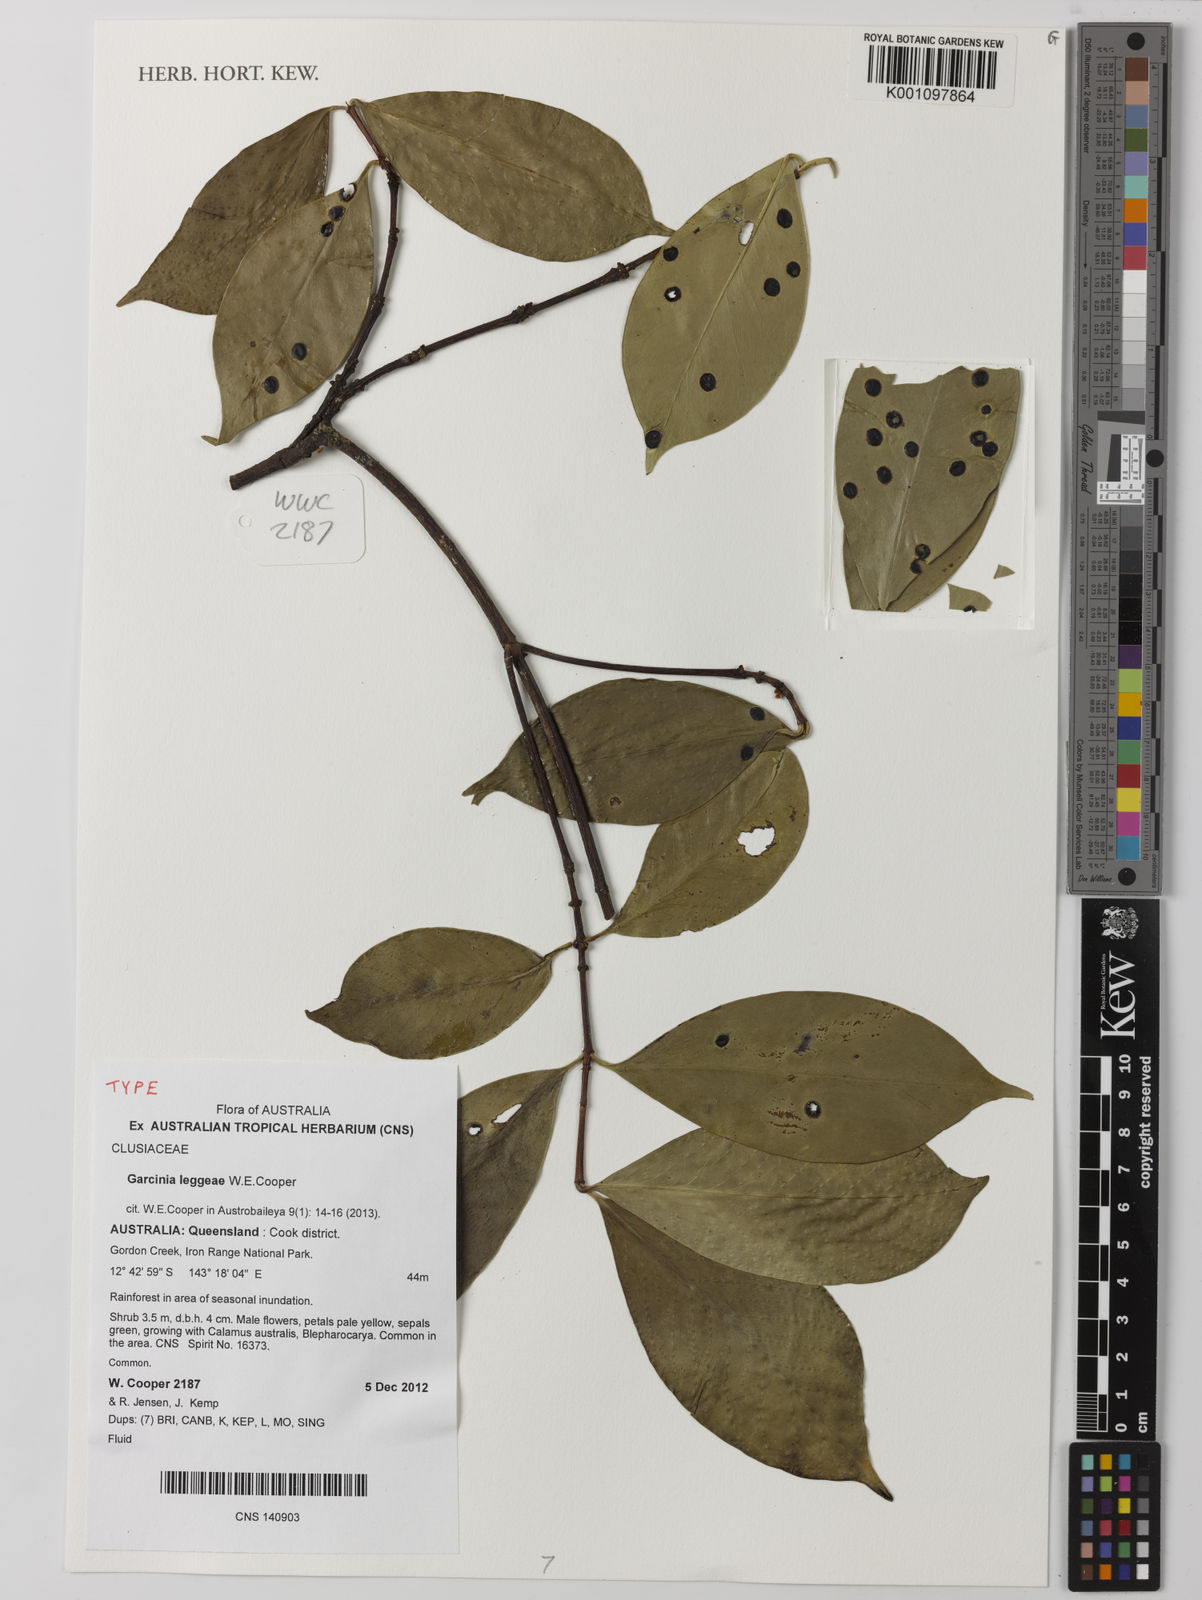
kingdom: Plantae
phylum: Tracheophyta
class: Magnoliopsida
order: Malpighiales
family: Clusiaceae
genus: Garcinia
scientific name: Garcinia leggeae
